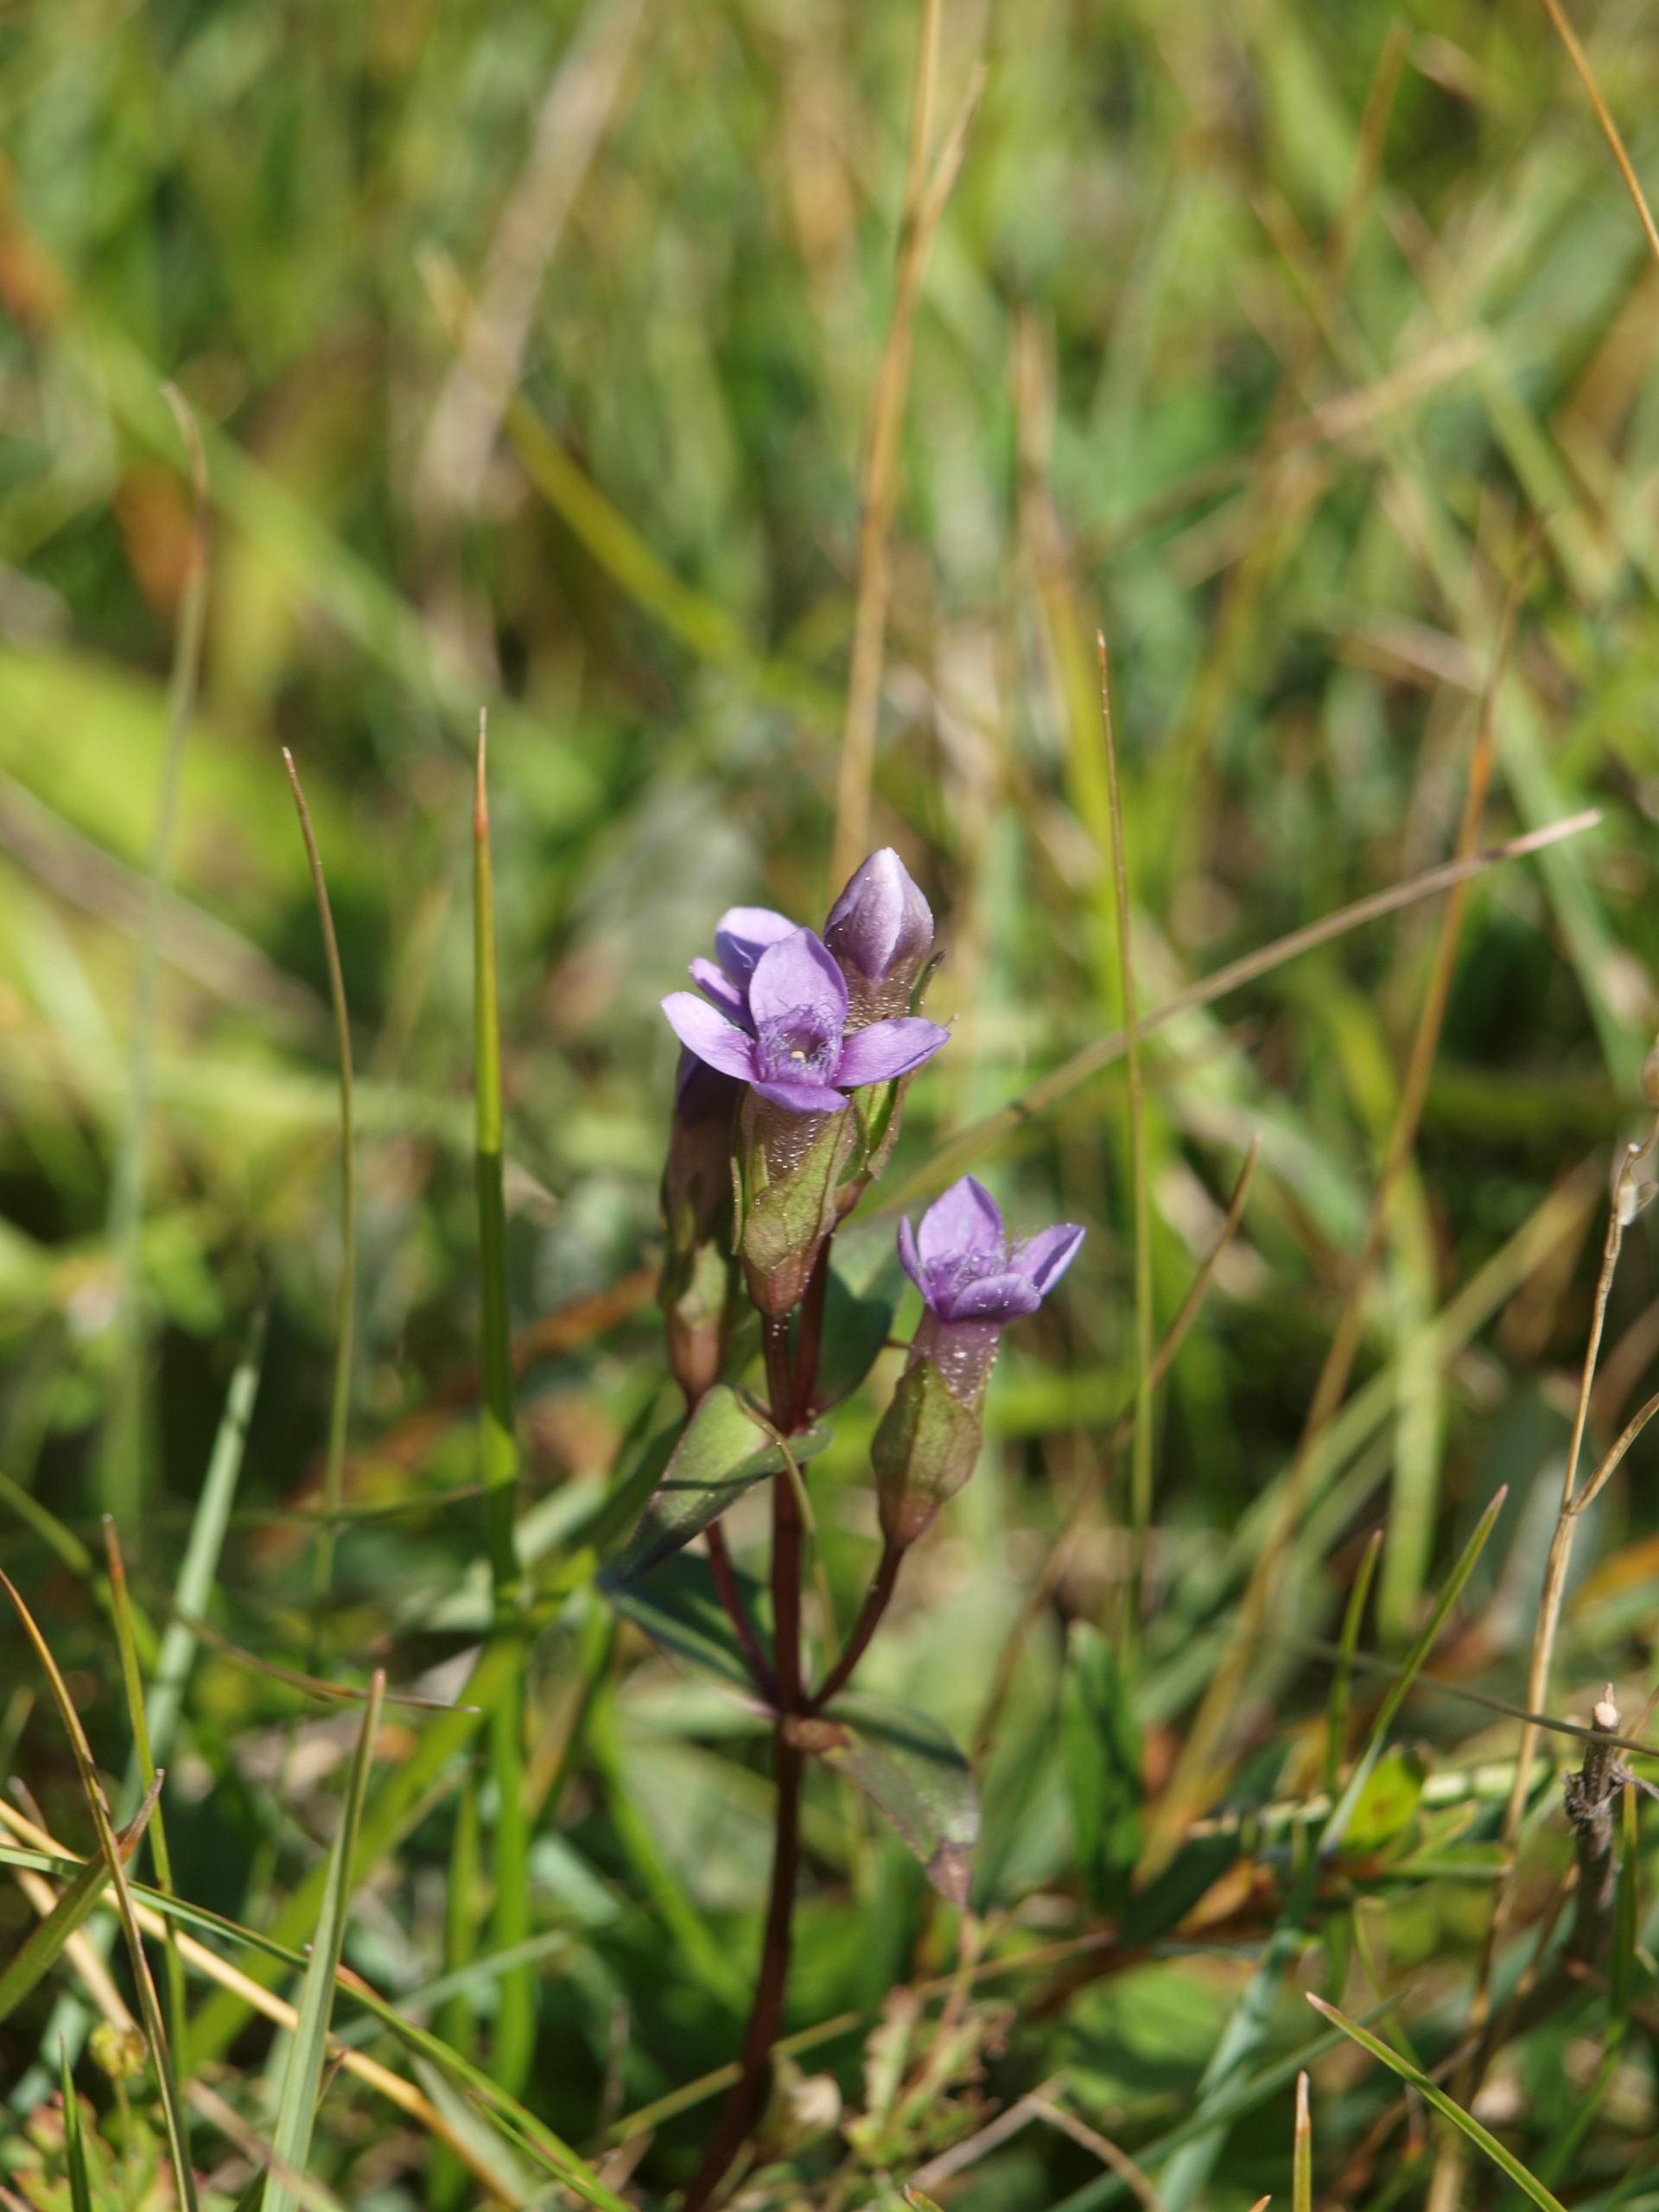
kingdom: Plantae
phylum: Tracheophyta
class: Magnoliopsida
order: Gentianales
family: Gentianaceae
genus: Gentianella
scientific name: Gentianella campestris
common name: Baltisk ensian
